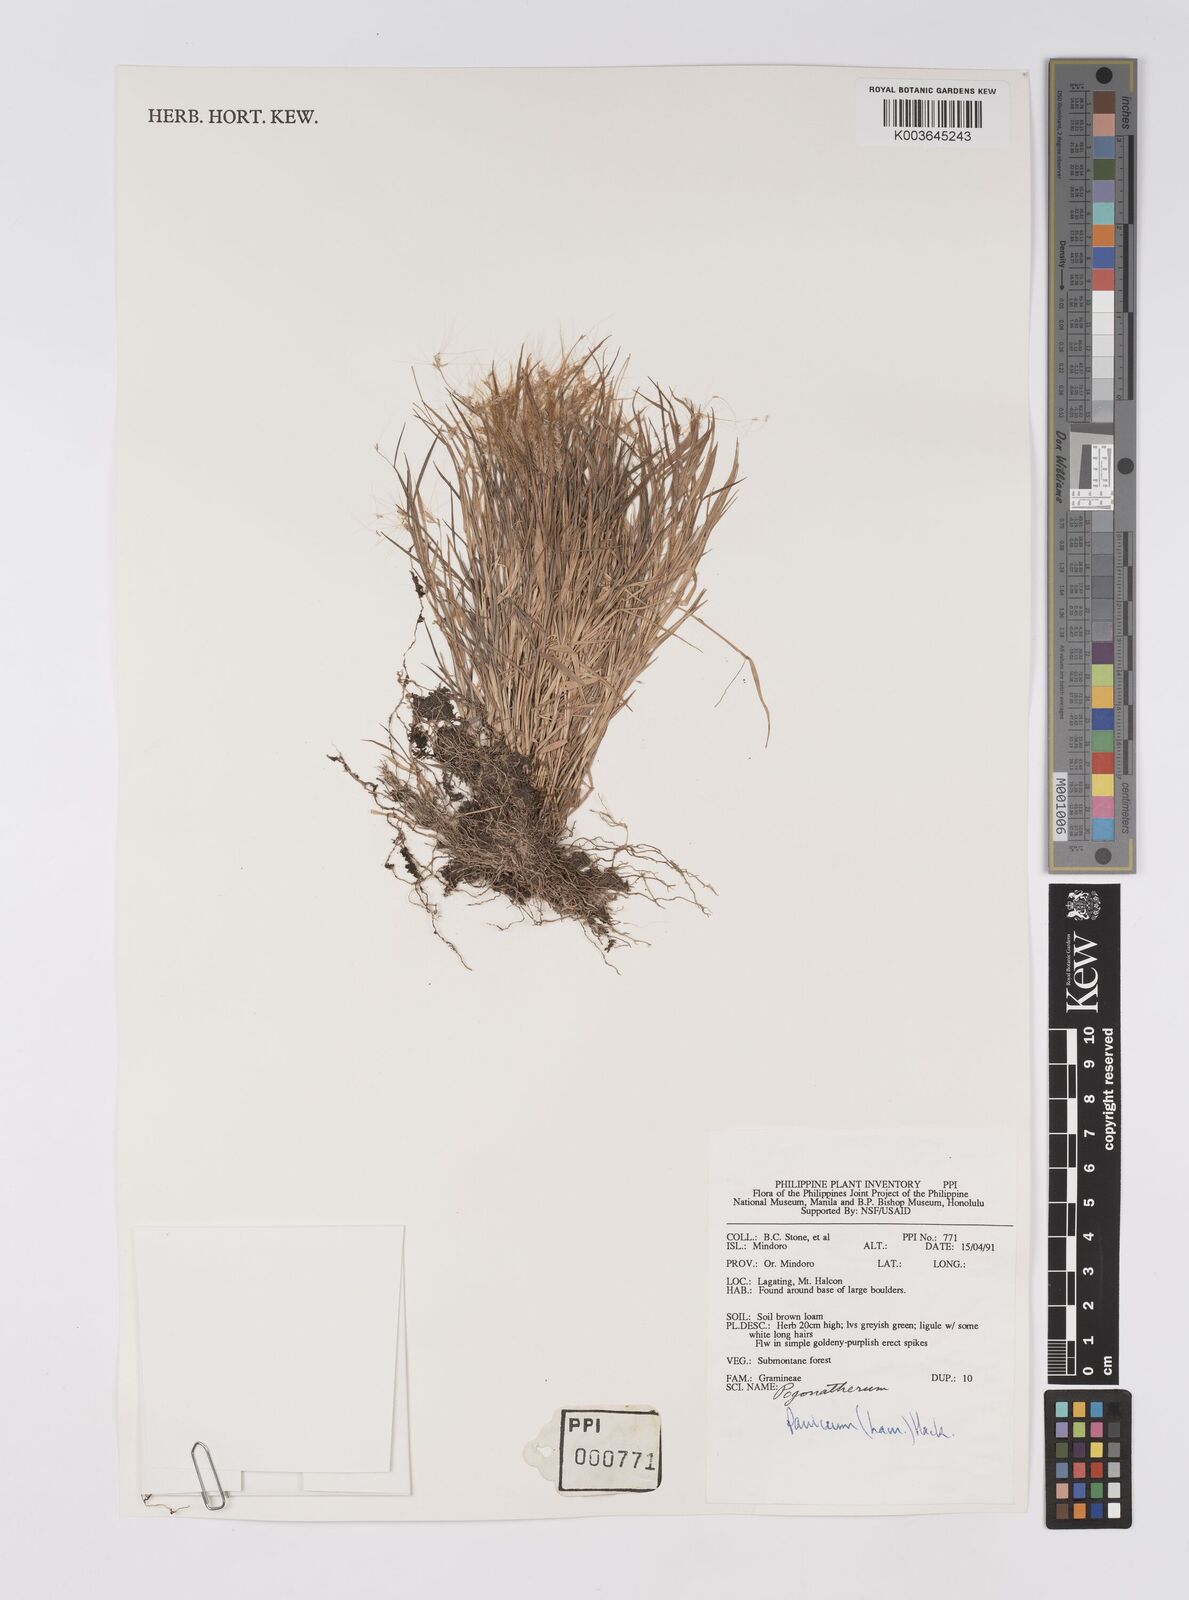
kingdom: Plantae
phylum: Tracheophyta
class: Liliopsida
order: Poales
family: Poaceae
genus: Pogonatherum
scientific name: Pogonatherum paniceum
